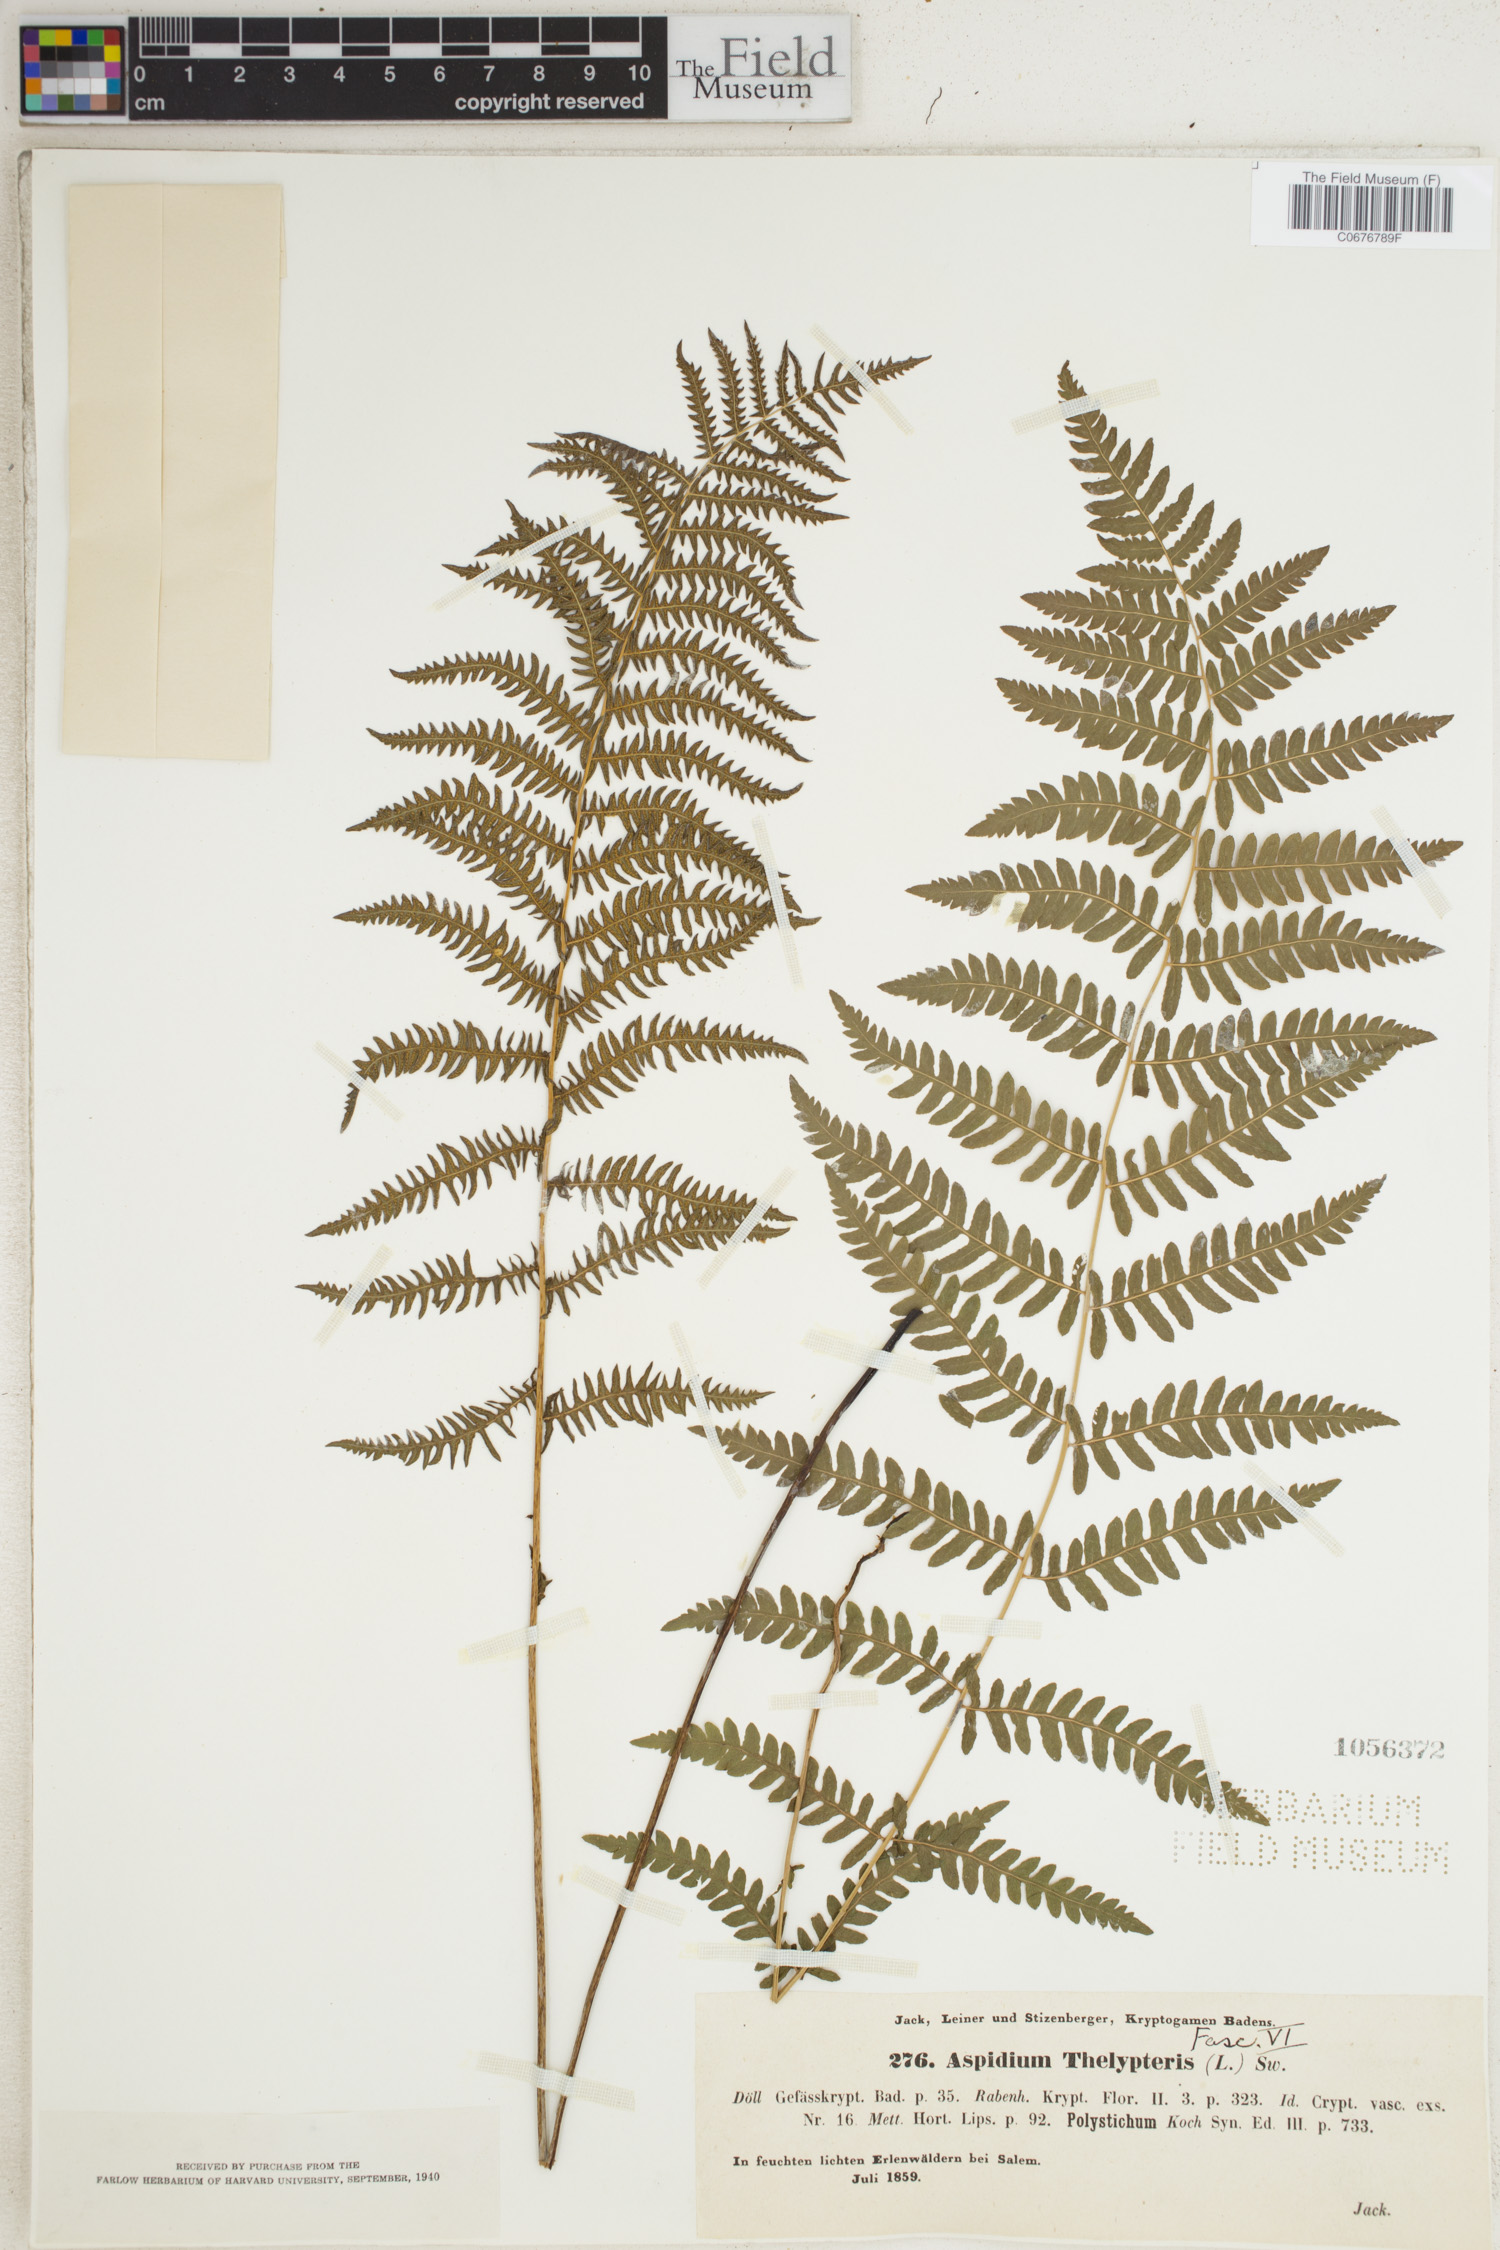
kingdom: Plantae
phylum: Tracheophyta
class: Polypodiopsida
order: Polypodiales
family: Thelypteridaceae
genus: Thelypteris
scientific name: Thelypteris palustris
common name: Marsh fern
